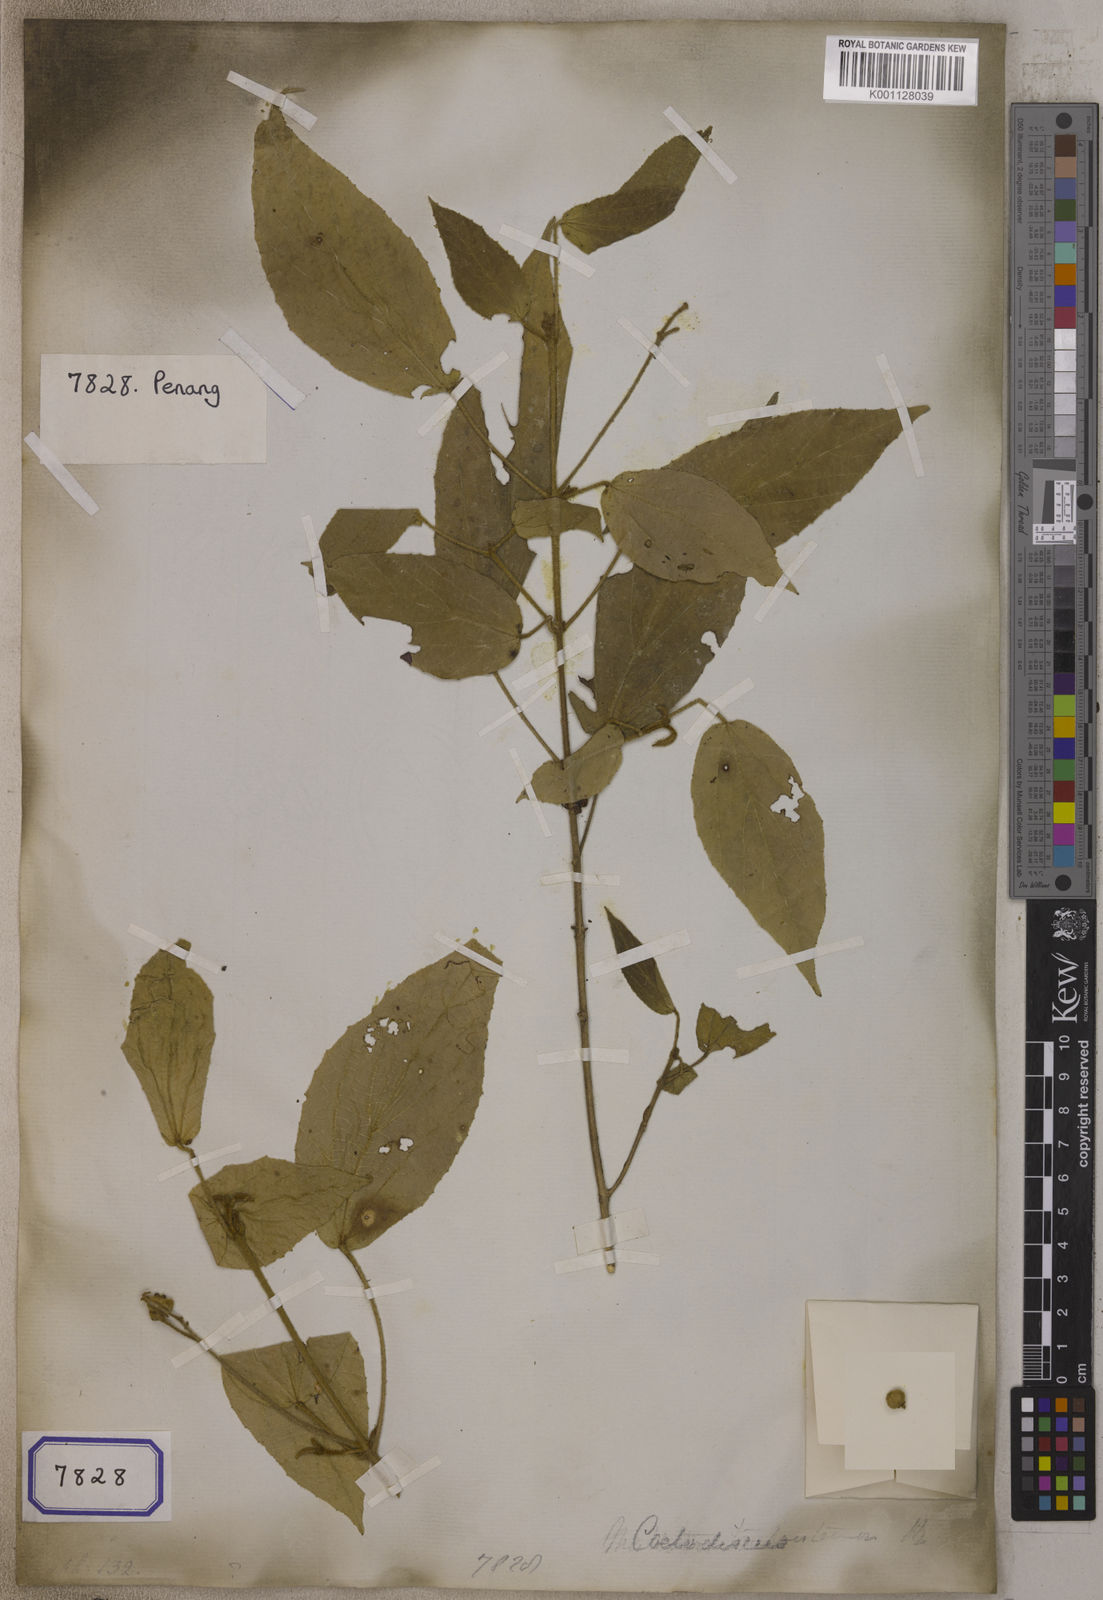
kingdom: Plantae
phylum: Tracheophyta
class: Magnoliopsida
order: Malpighiales
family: Euphorbiaceae
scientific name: Euphorbiaceae
